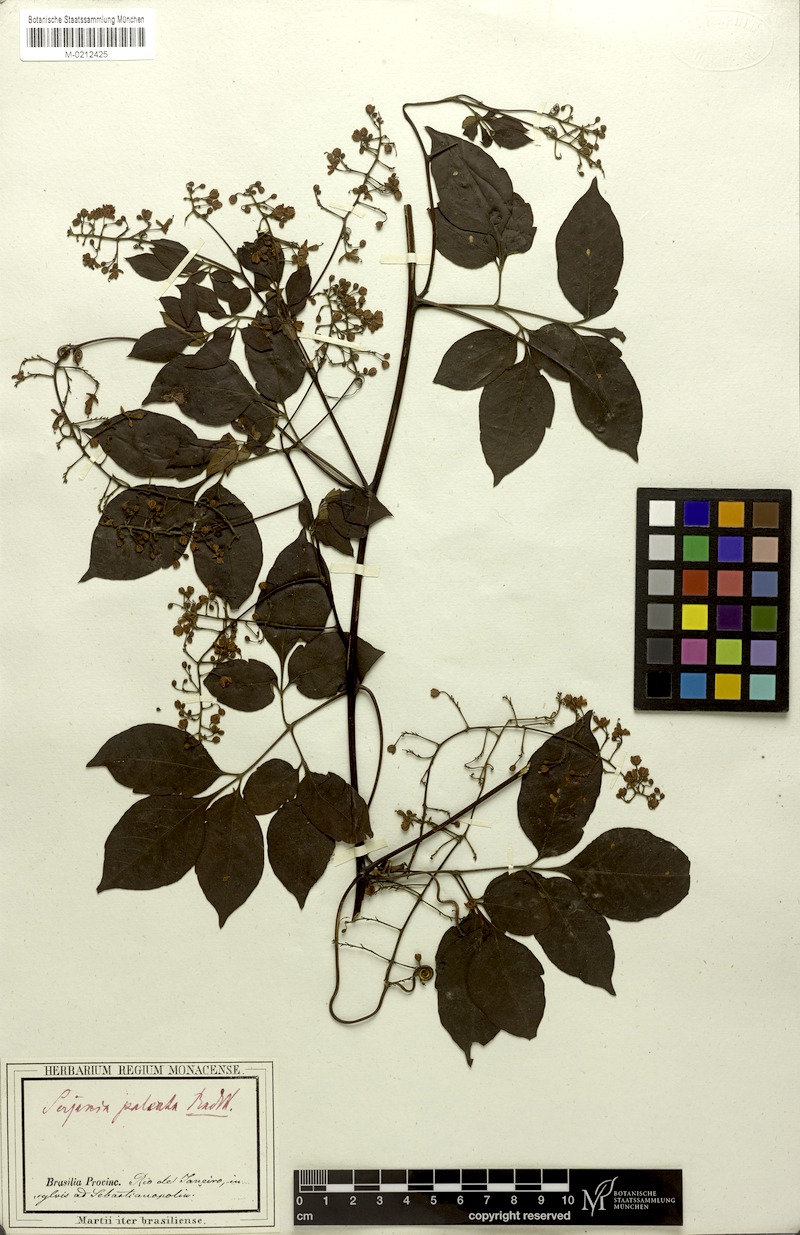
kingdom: Plantae
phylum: Tracheophyta
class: Magnoliopsida
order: Sapindales
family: Sapindaceae
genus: Serjania
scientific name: Serjania paleata
